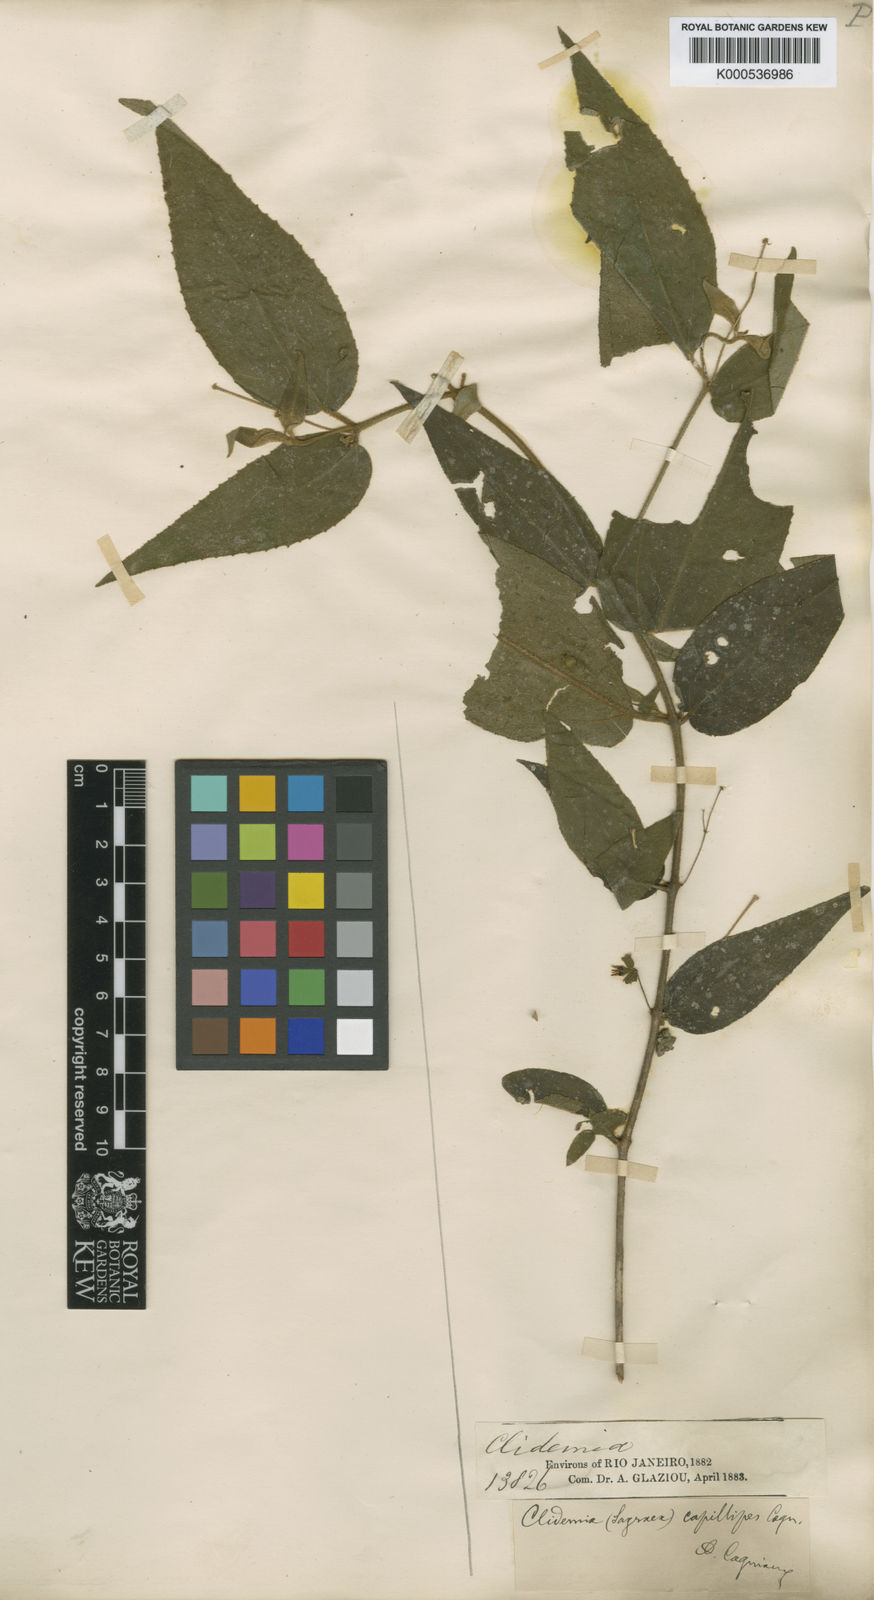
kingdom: Plantae
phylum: Tracheophyta
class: Magnoliopsida
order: Myrtales
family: Melastomataceae
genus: Miconia
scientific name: Miconia capillipes
